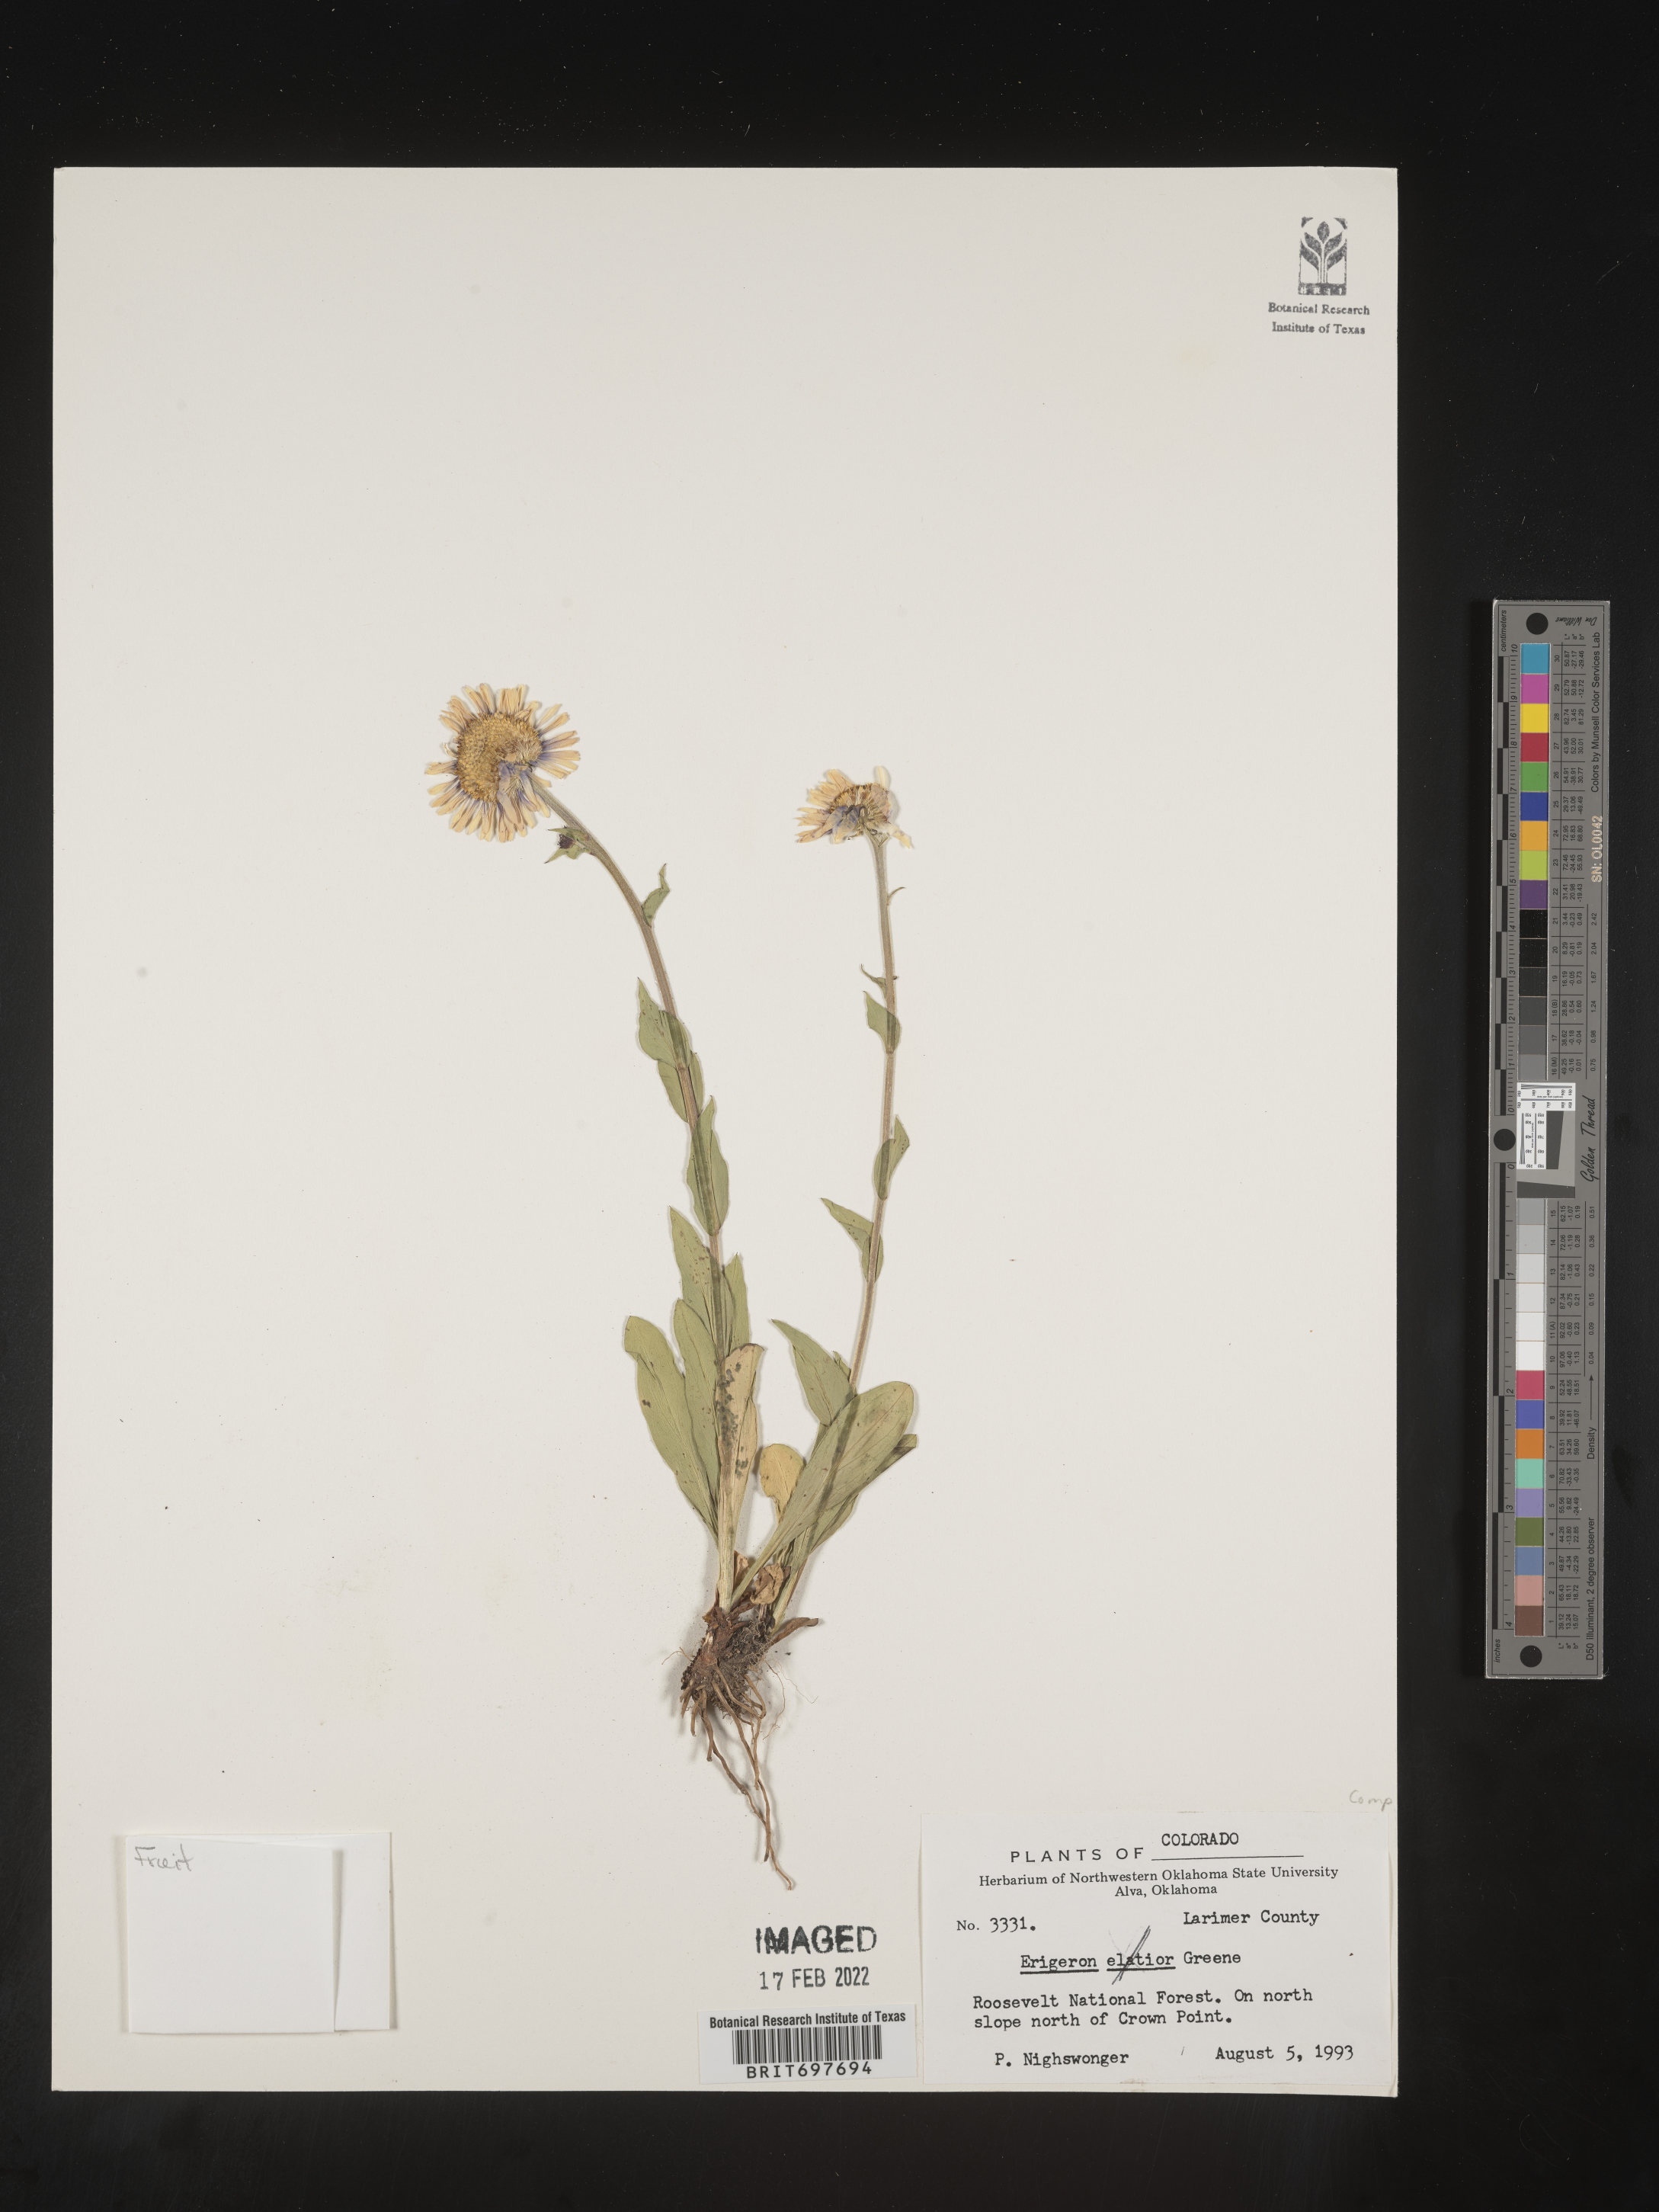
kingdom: Plantae
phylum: Tracheophyta
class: Magnoliopsida
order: Asterales
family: Asteraceae
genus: Erigeron
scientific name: Erigeron glacialis
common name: Subalpine fleabane
